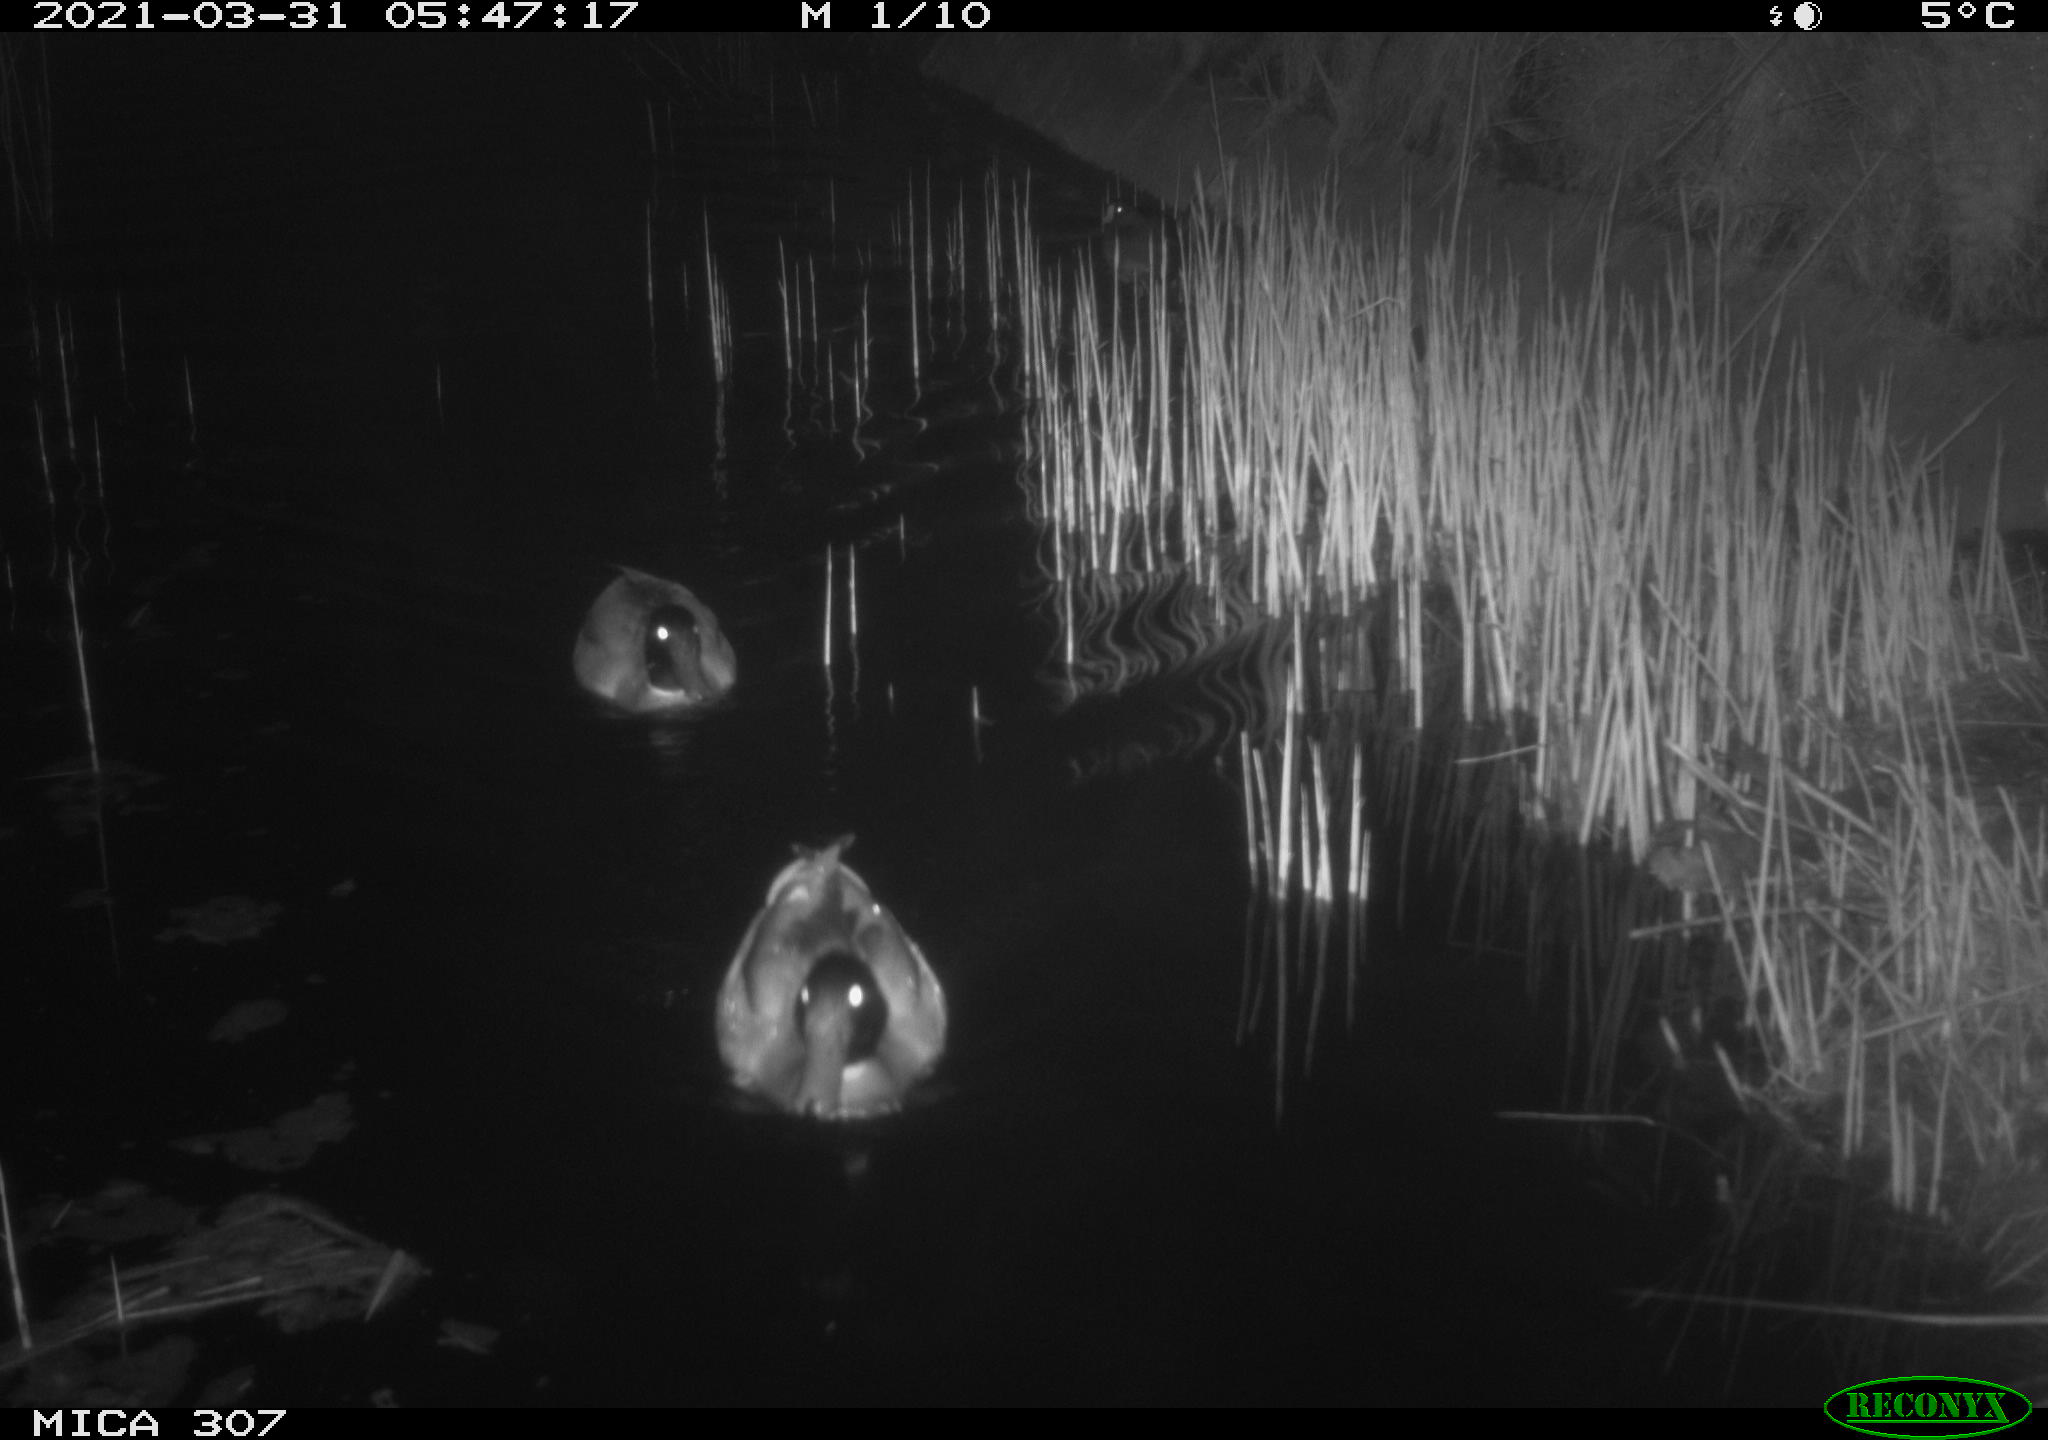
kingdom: Animalia
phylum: Chordata
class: Aves
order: Anseriformes
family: Anatidae
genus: Anas
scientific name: Anas platyrhynchos
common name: Mallard
